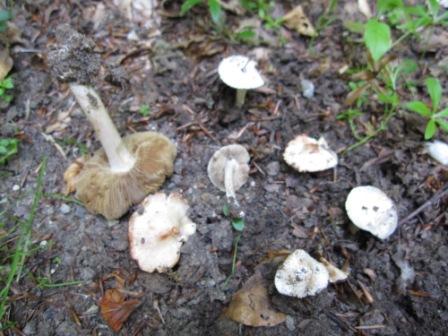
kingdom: Fungi
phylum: Basidiomycota
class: Agaricomycetes
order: Agaricales
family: Inocybaceae
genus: Inosperma
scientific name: Inosperma erubescens
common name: giftig trævlhat
